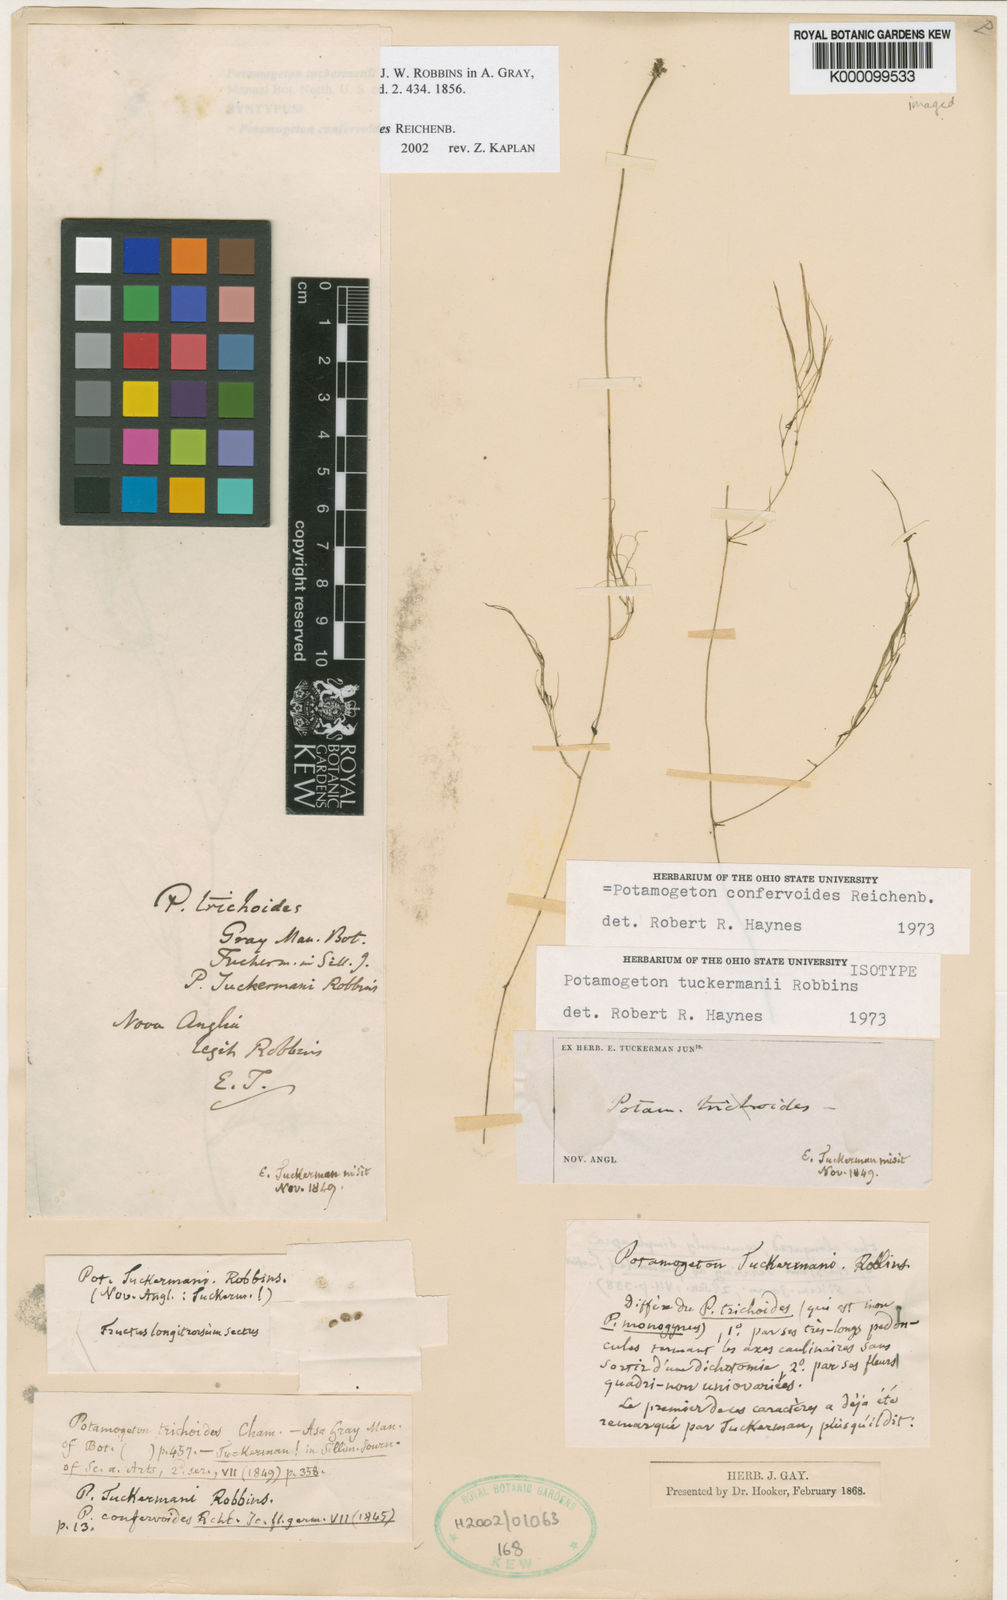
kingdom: Plantae
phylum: Tracheophyta
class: Liliopsida
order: Alismatales
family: Potamogetonaceae
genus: Potamogeton
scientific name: Potamogeton
